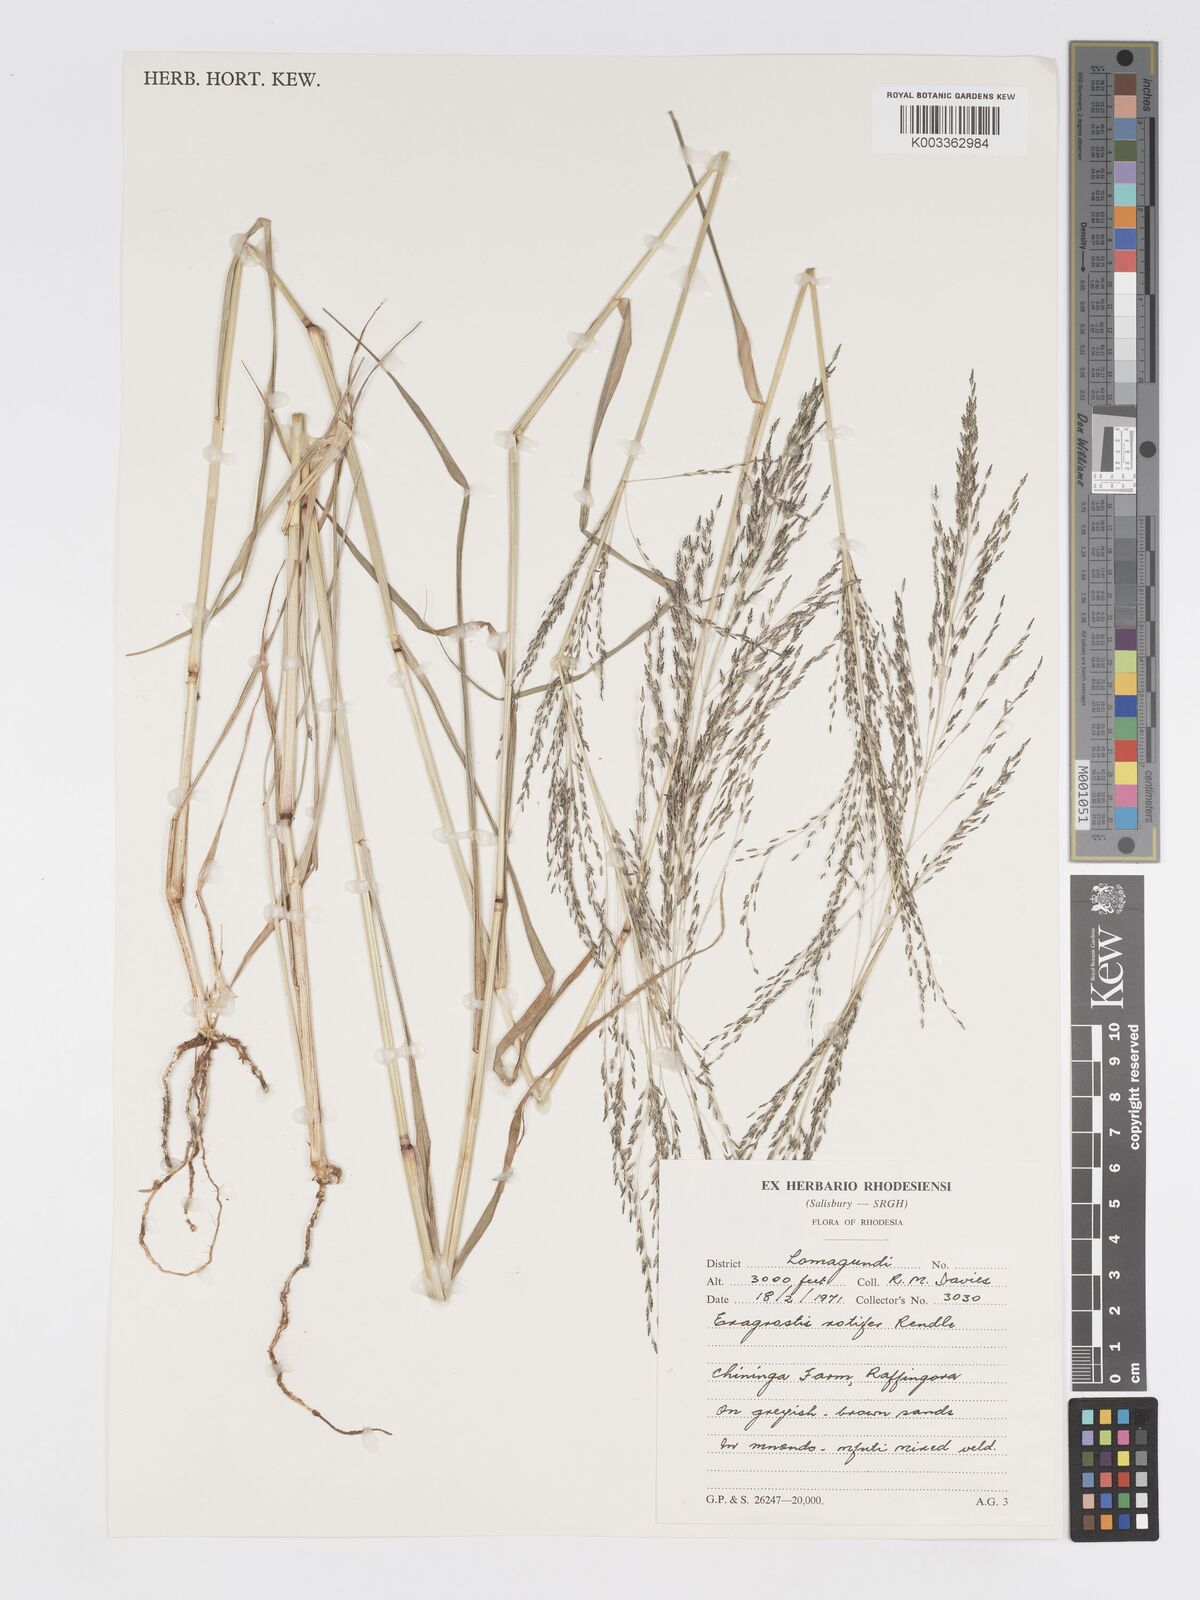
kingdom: Plantae
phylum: Tracheophyta
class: Liliopsida
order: Poales
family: Poaceae
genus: Eragrostis
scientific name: Eragrostis cylindriflora
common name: Cylinderflower lovegrass
